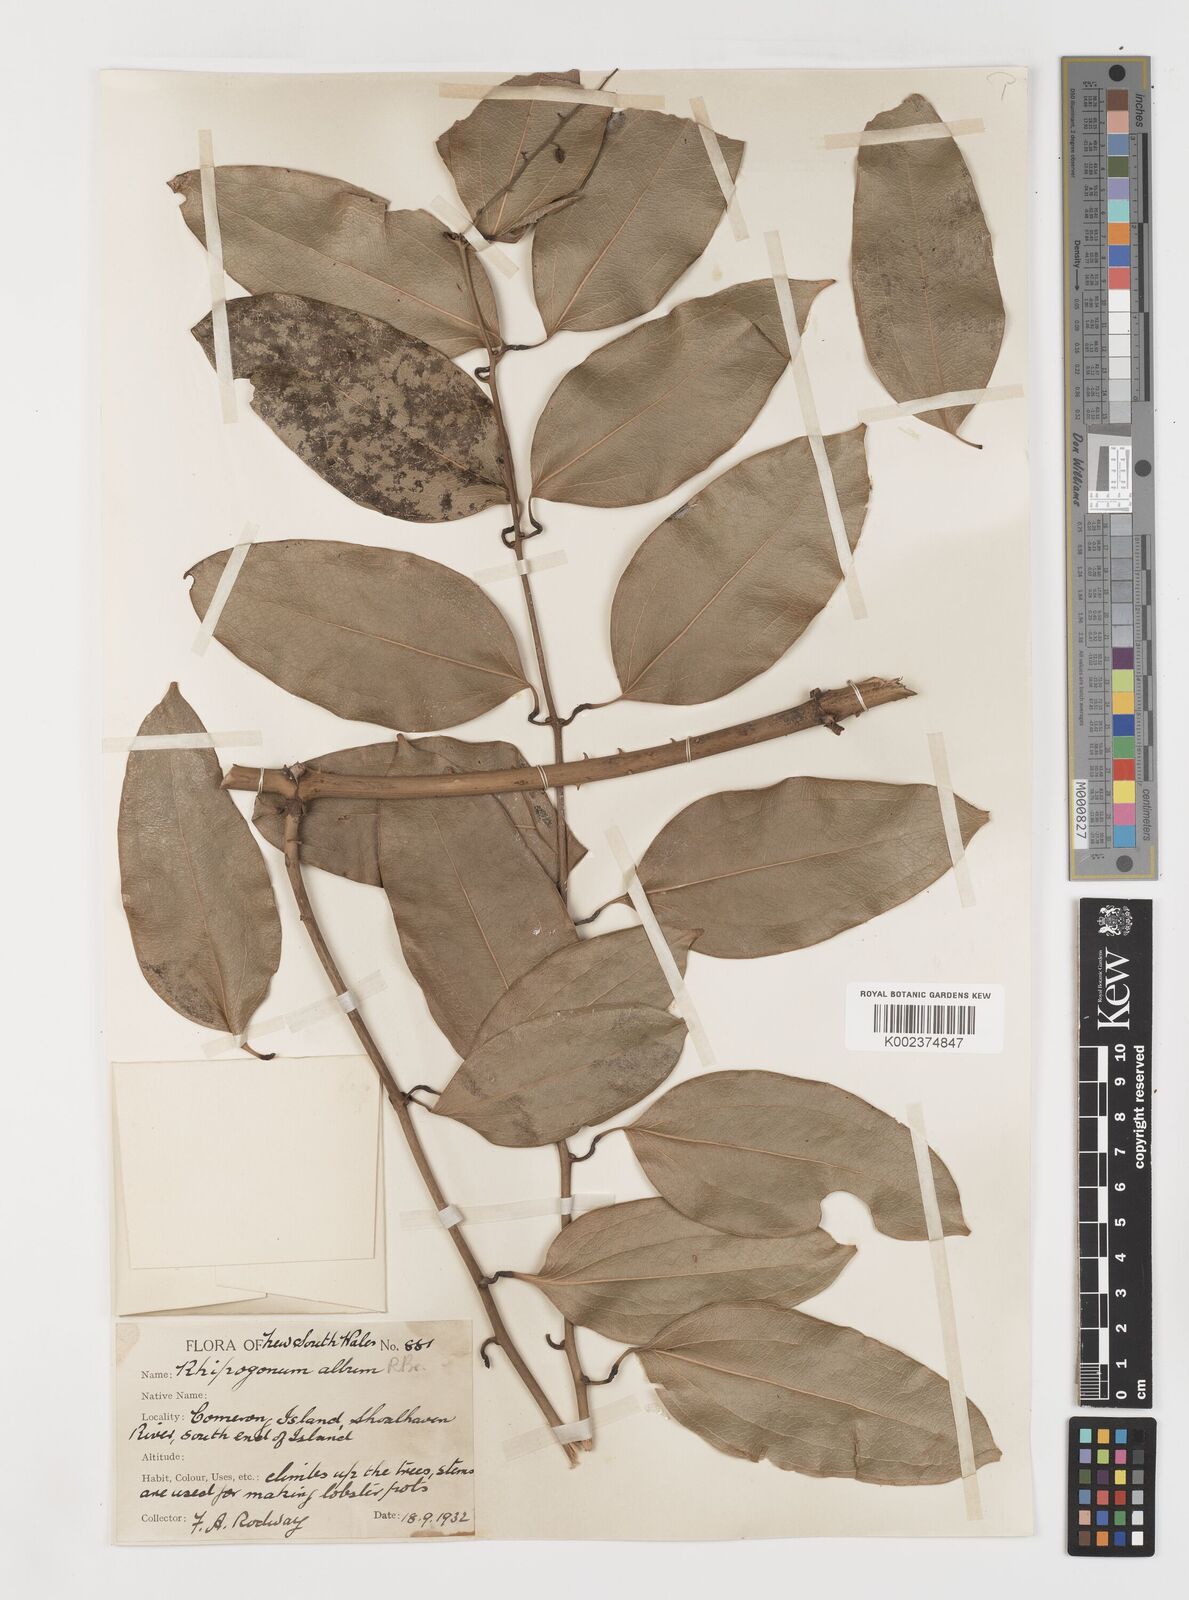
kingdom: Plantae
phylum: Tracheophyta
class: Liliopsida
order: Liliales
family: Ripogonaceae
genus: Ripogonum
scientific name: Ripogonum album
